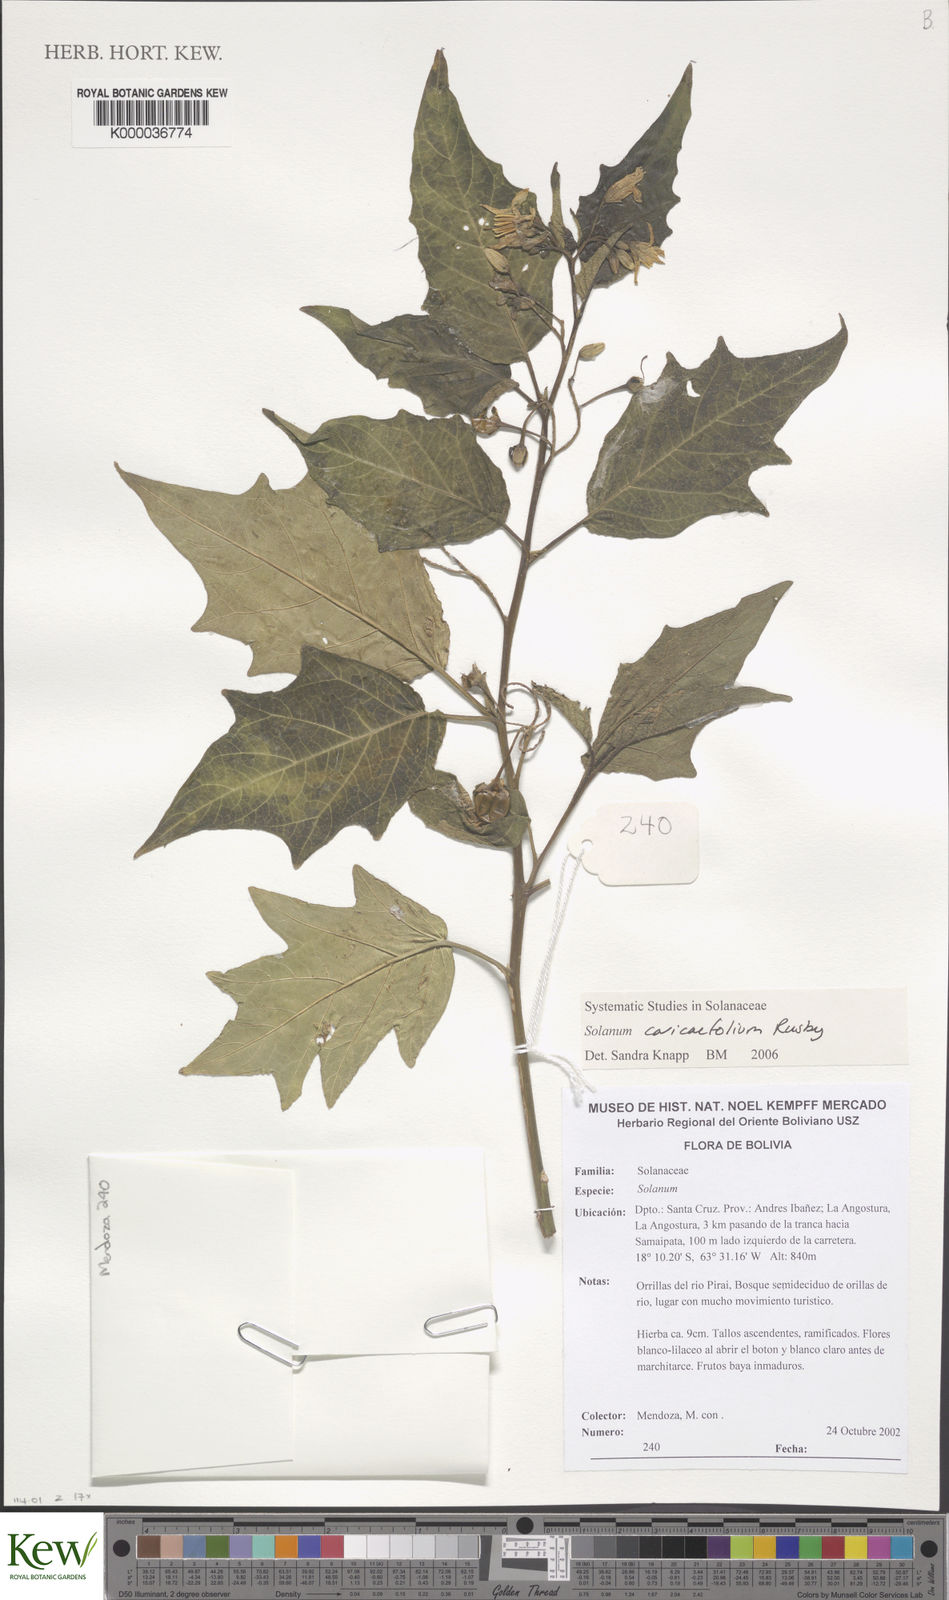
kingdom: Plantae
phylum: Tracheophyta
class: Magnoliopsida
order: Solanales
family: Solanaceae
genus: Solanum
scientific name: Solanum caricaefolium
